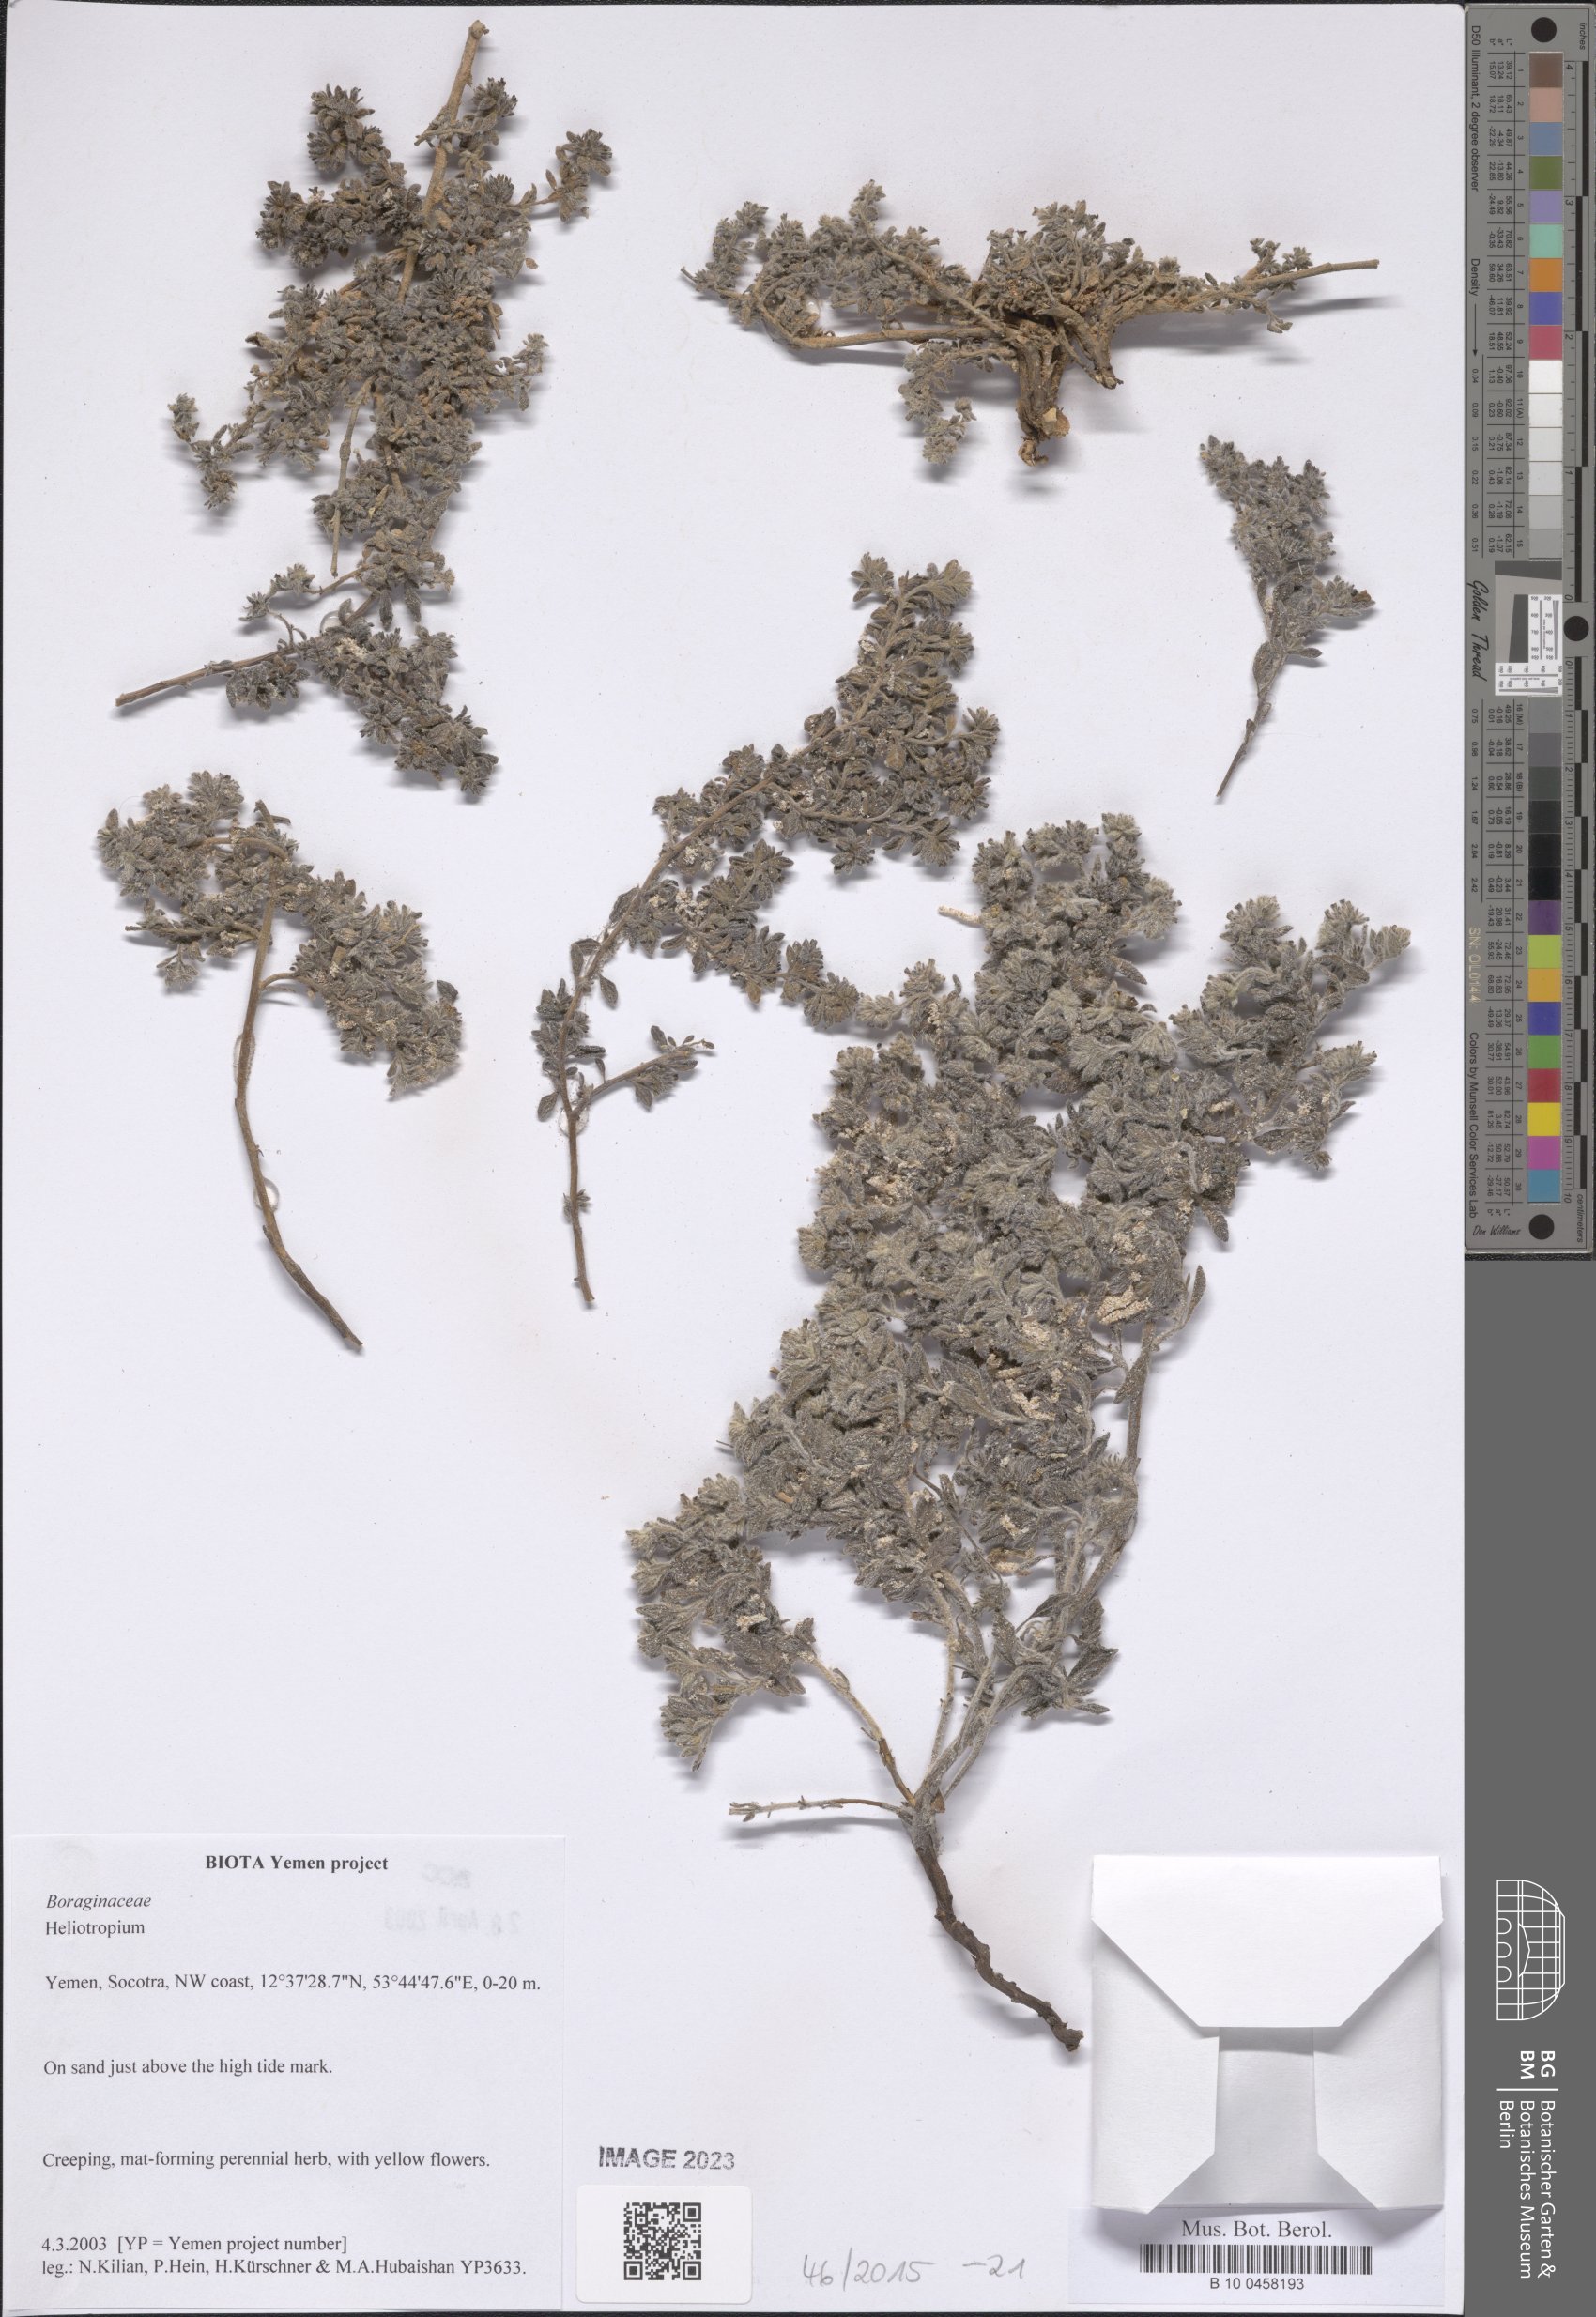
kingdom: Plantae
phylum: Tracheophyta
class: Magnoliopsida
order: Boraginales
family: Heliotropiaceae
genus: Heliotropium
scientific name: Heliotropium
